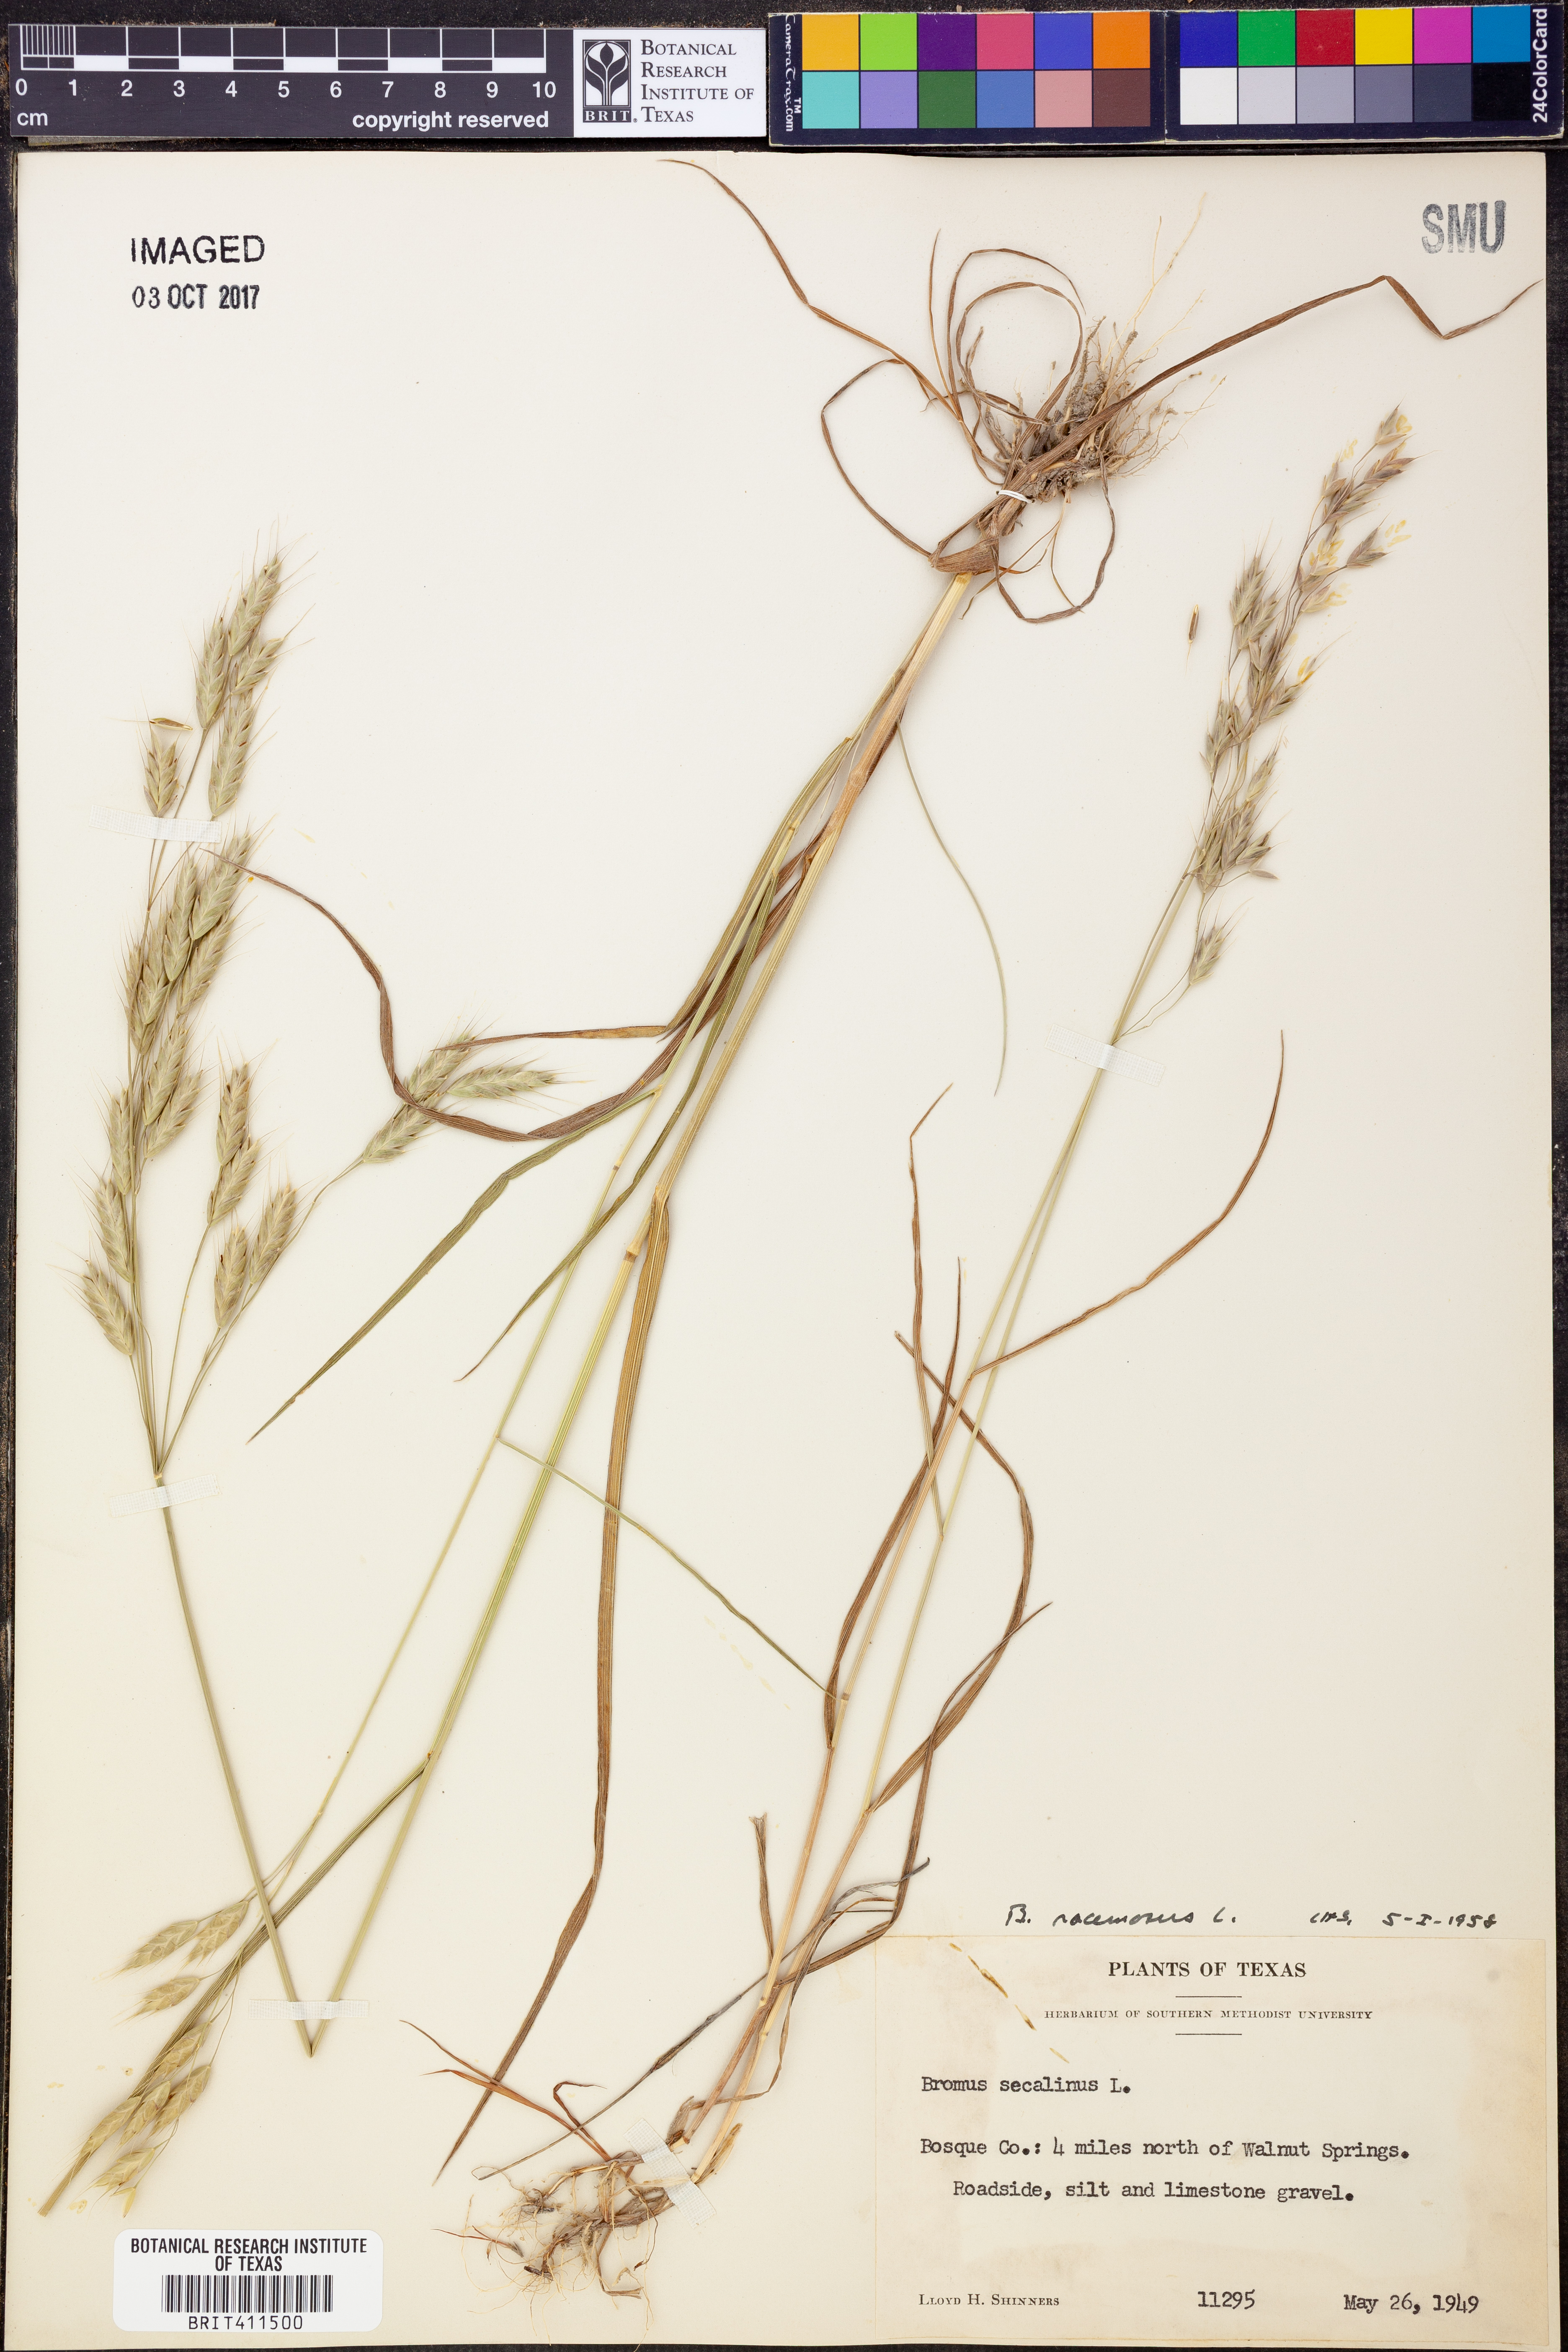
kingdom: Plantae
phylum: Tracheophyta
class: Liliopsida
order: Poales
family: Poaceae
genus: Bromus
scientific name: Bromus racemosus
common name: Bald brome
